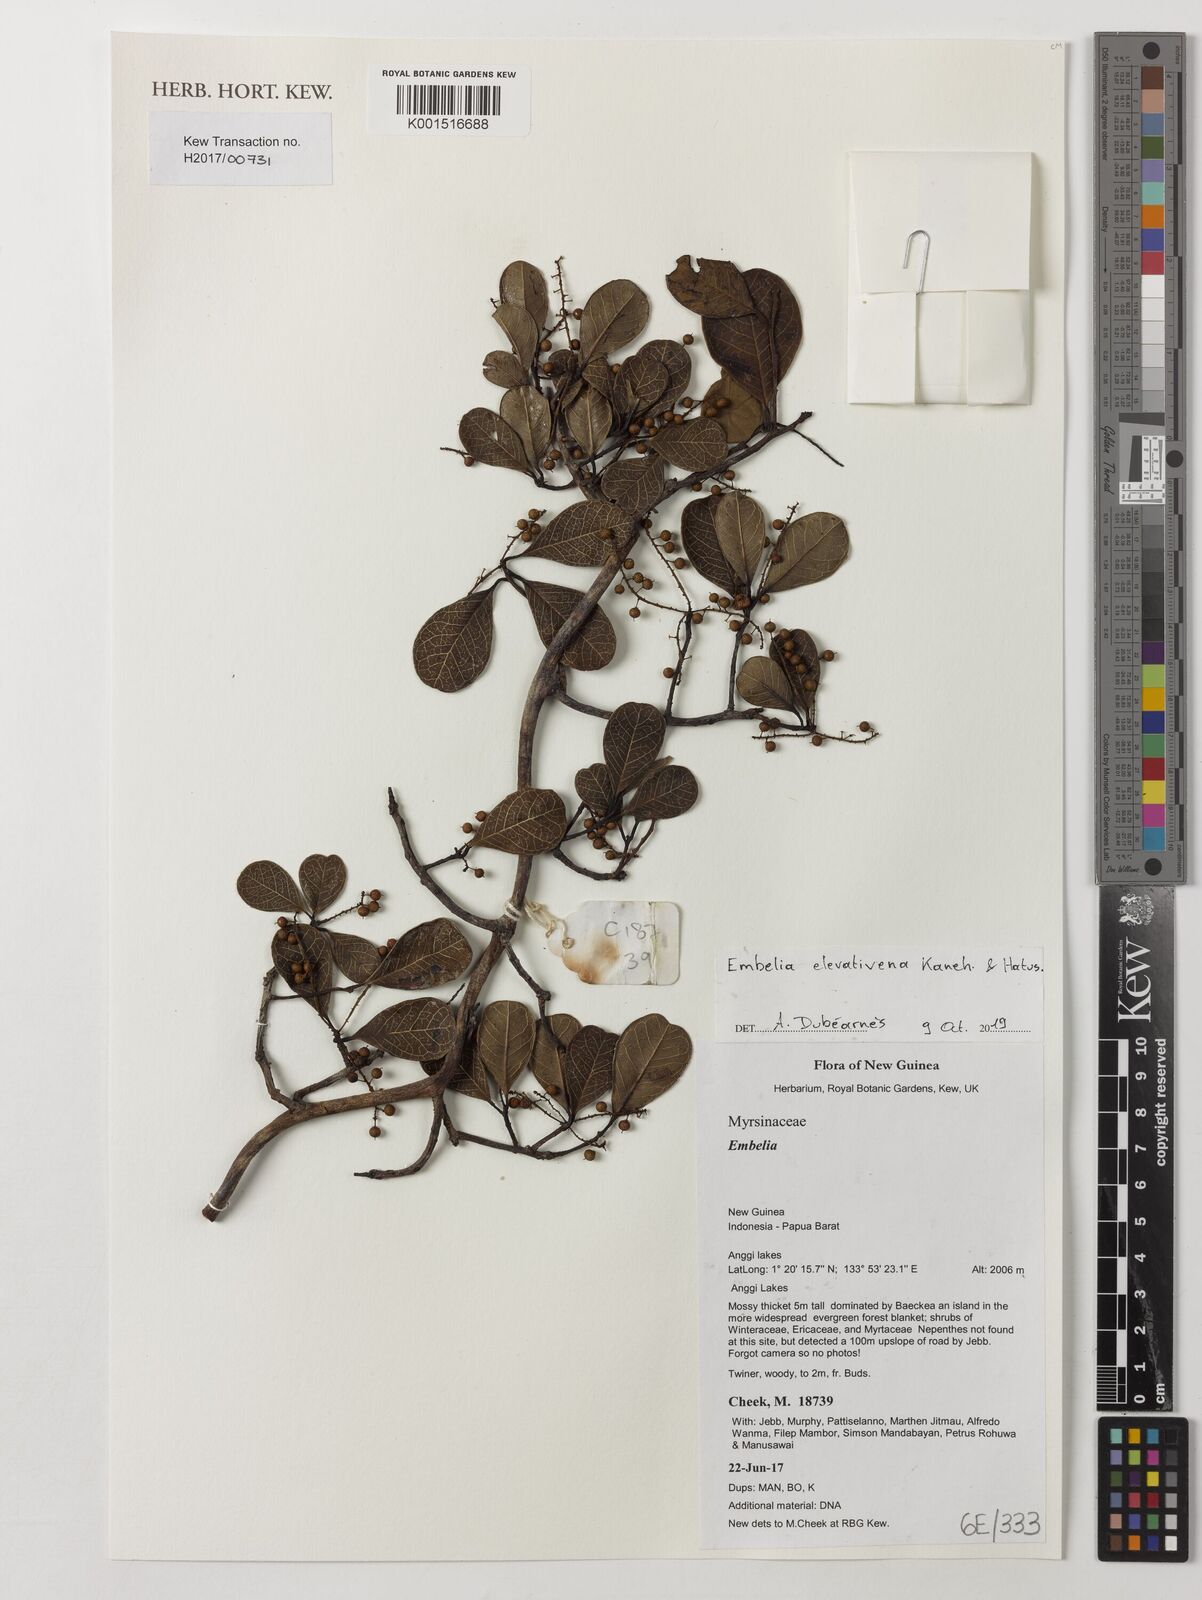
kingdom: Plantae
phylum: Tracheophyta
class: Magnoliopsida
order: Ericales
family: Primulaceae
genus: Embelia
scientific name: Embelia elevativena
